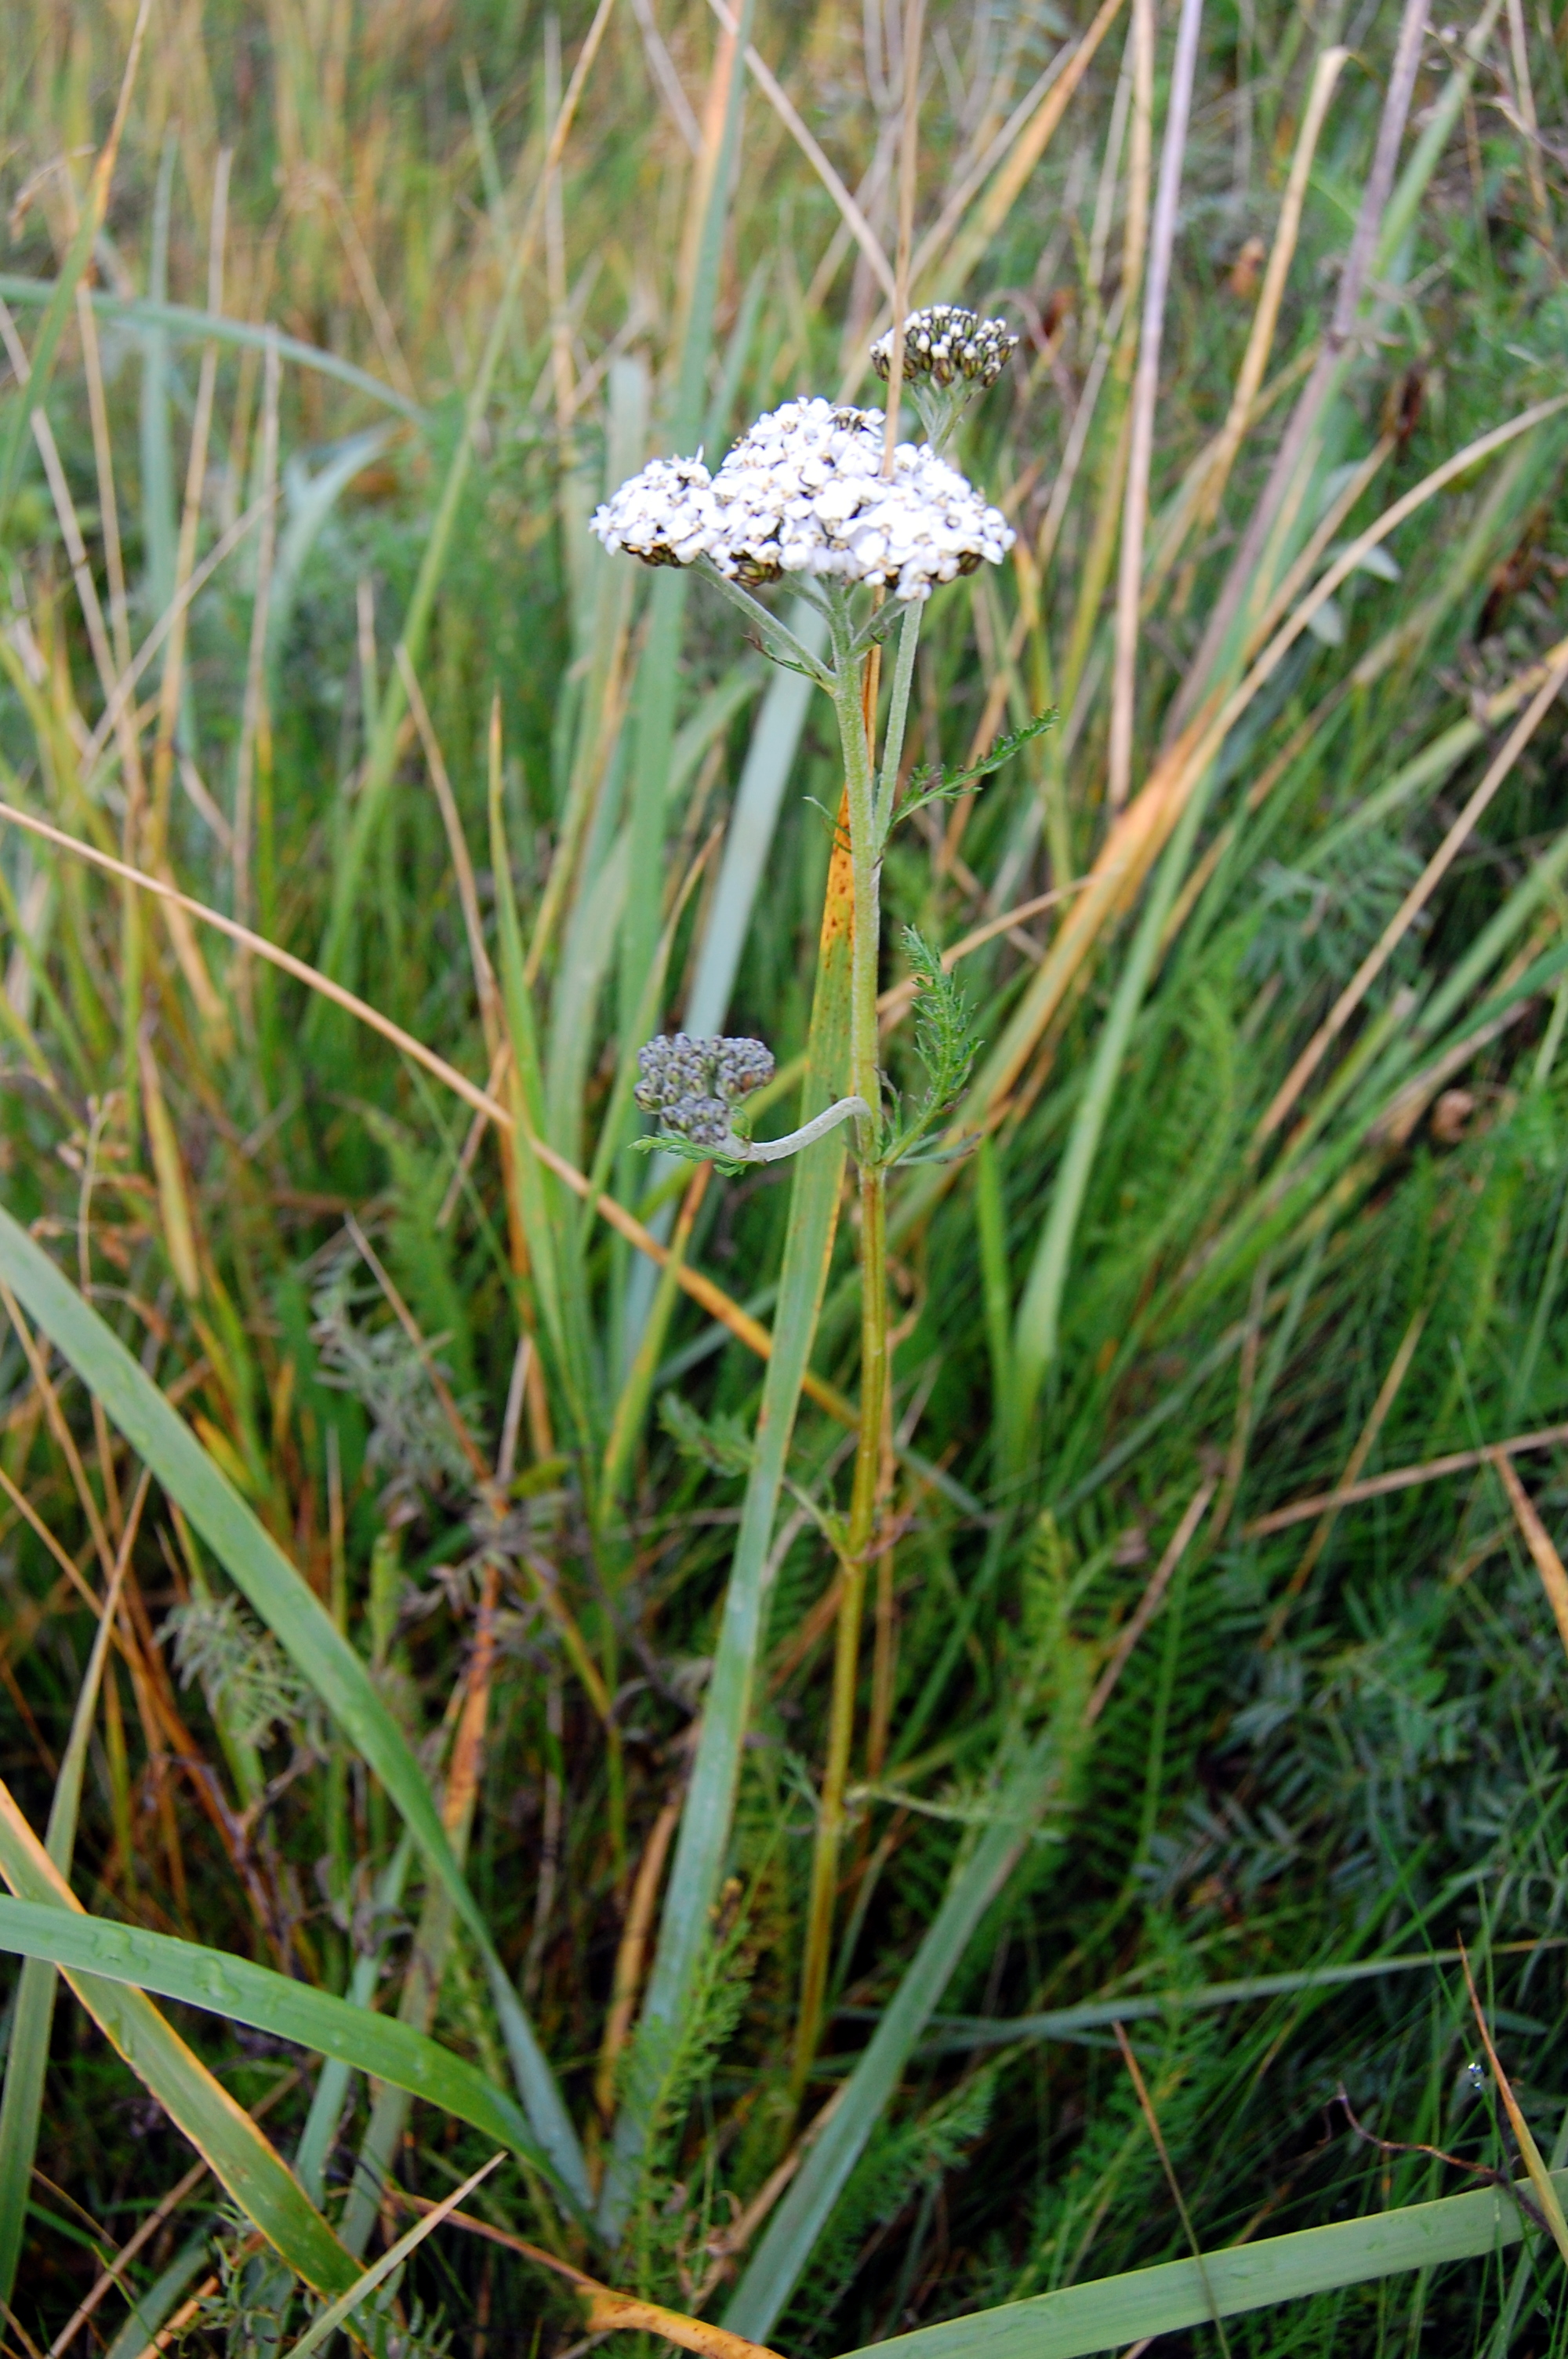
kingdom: Plantae
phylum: Tracheophyta
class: Magnoliopsida
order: Asterales
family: Asteraceae
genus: Achillea
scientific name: Achillea millefolium
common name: Yarrow
